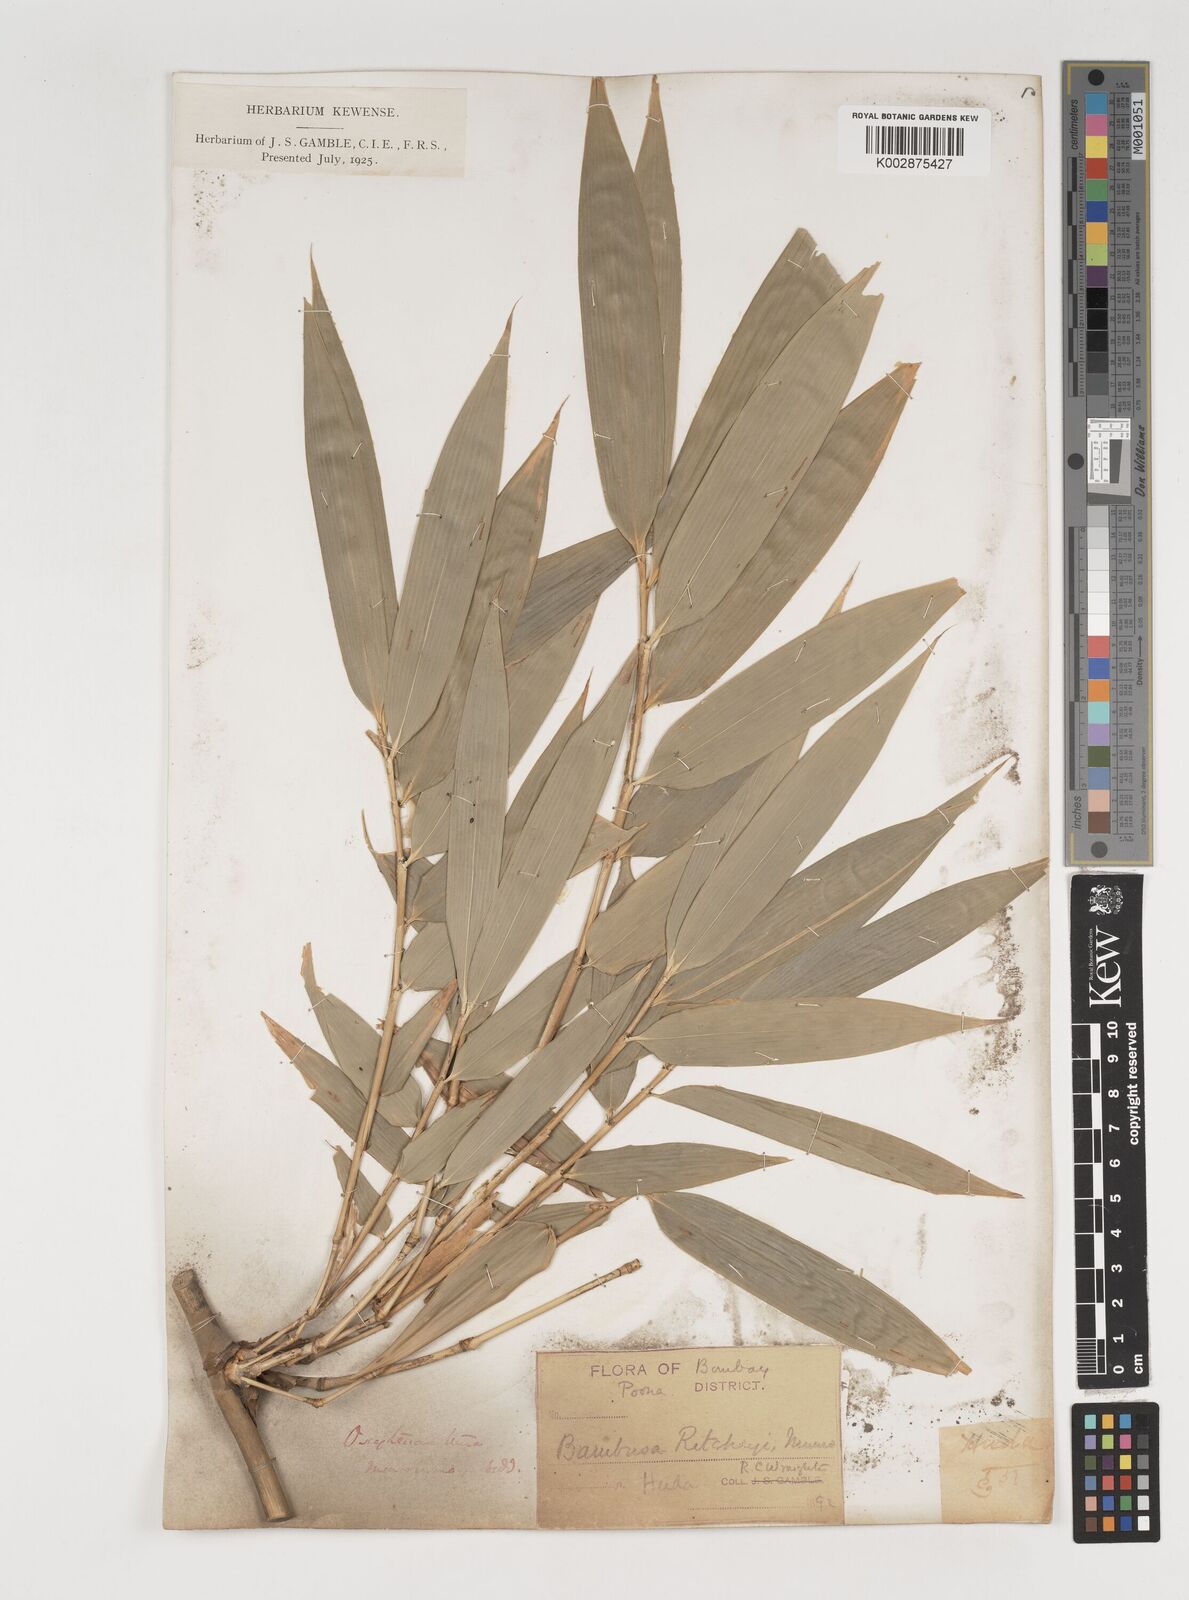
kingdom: Plantae
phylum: Tracheophyta
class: Liliopsida
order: Poales
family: Poaceae
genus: Dendrocalamus
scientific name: Dendrocalamus
